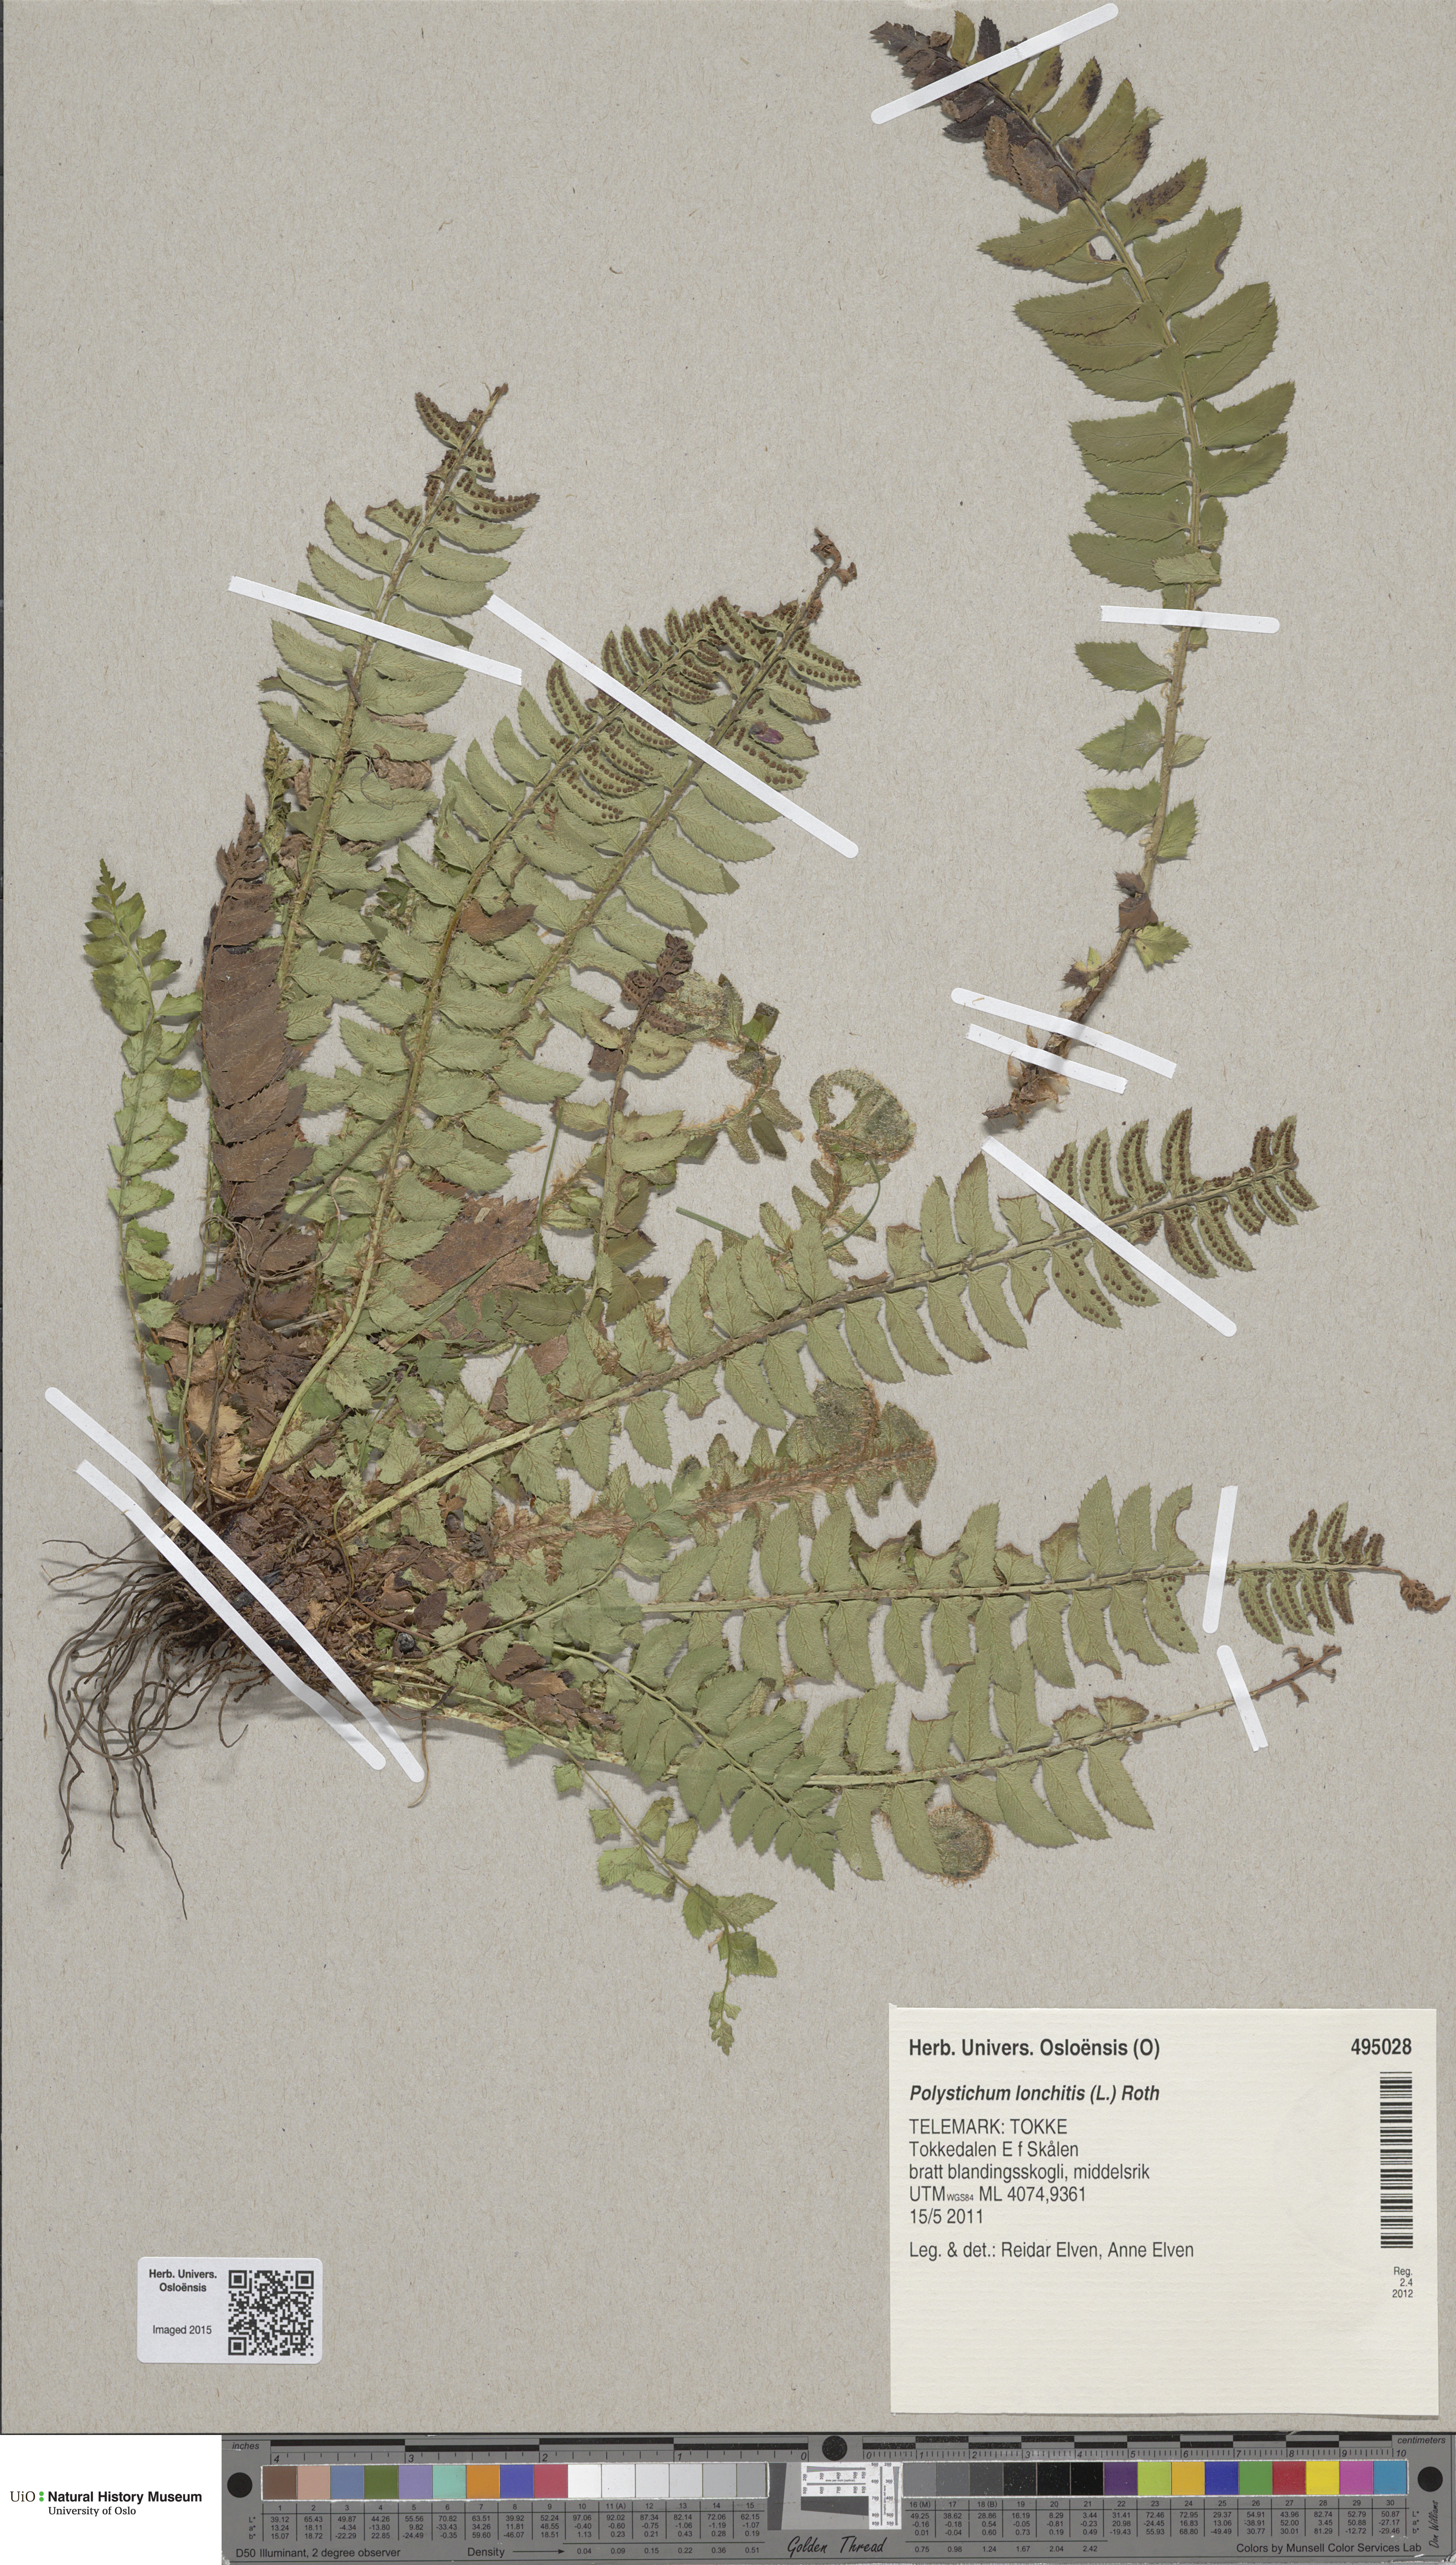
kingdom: Plantae
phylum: Tracheophyta
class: Polypodiopsida
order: Polypodiales
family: Dryopteridaceae
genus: Polystichum
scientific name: Polystichum lonchitis
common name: Holly fern
